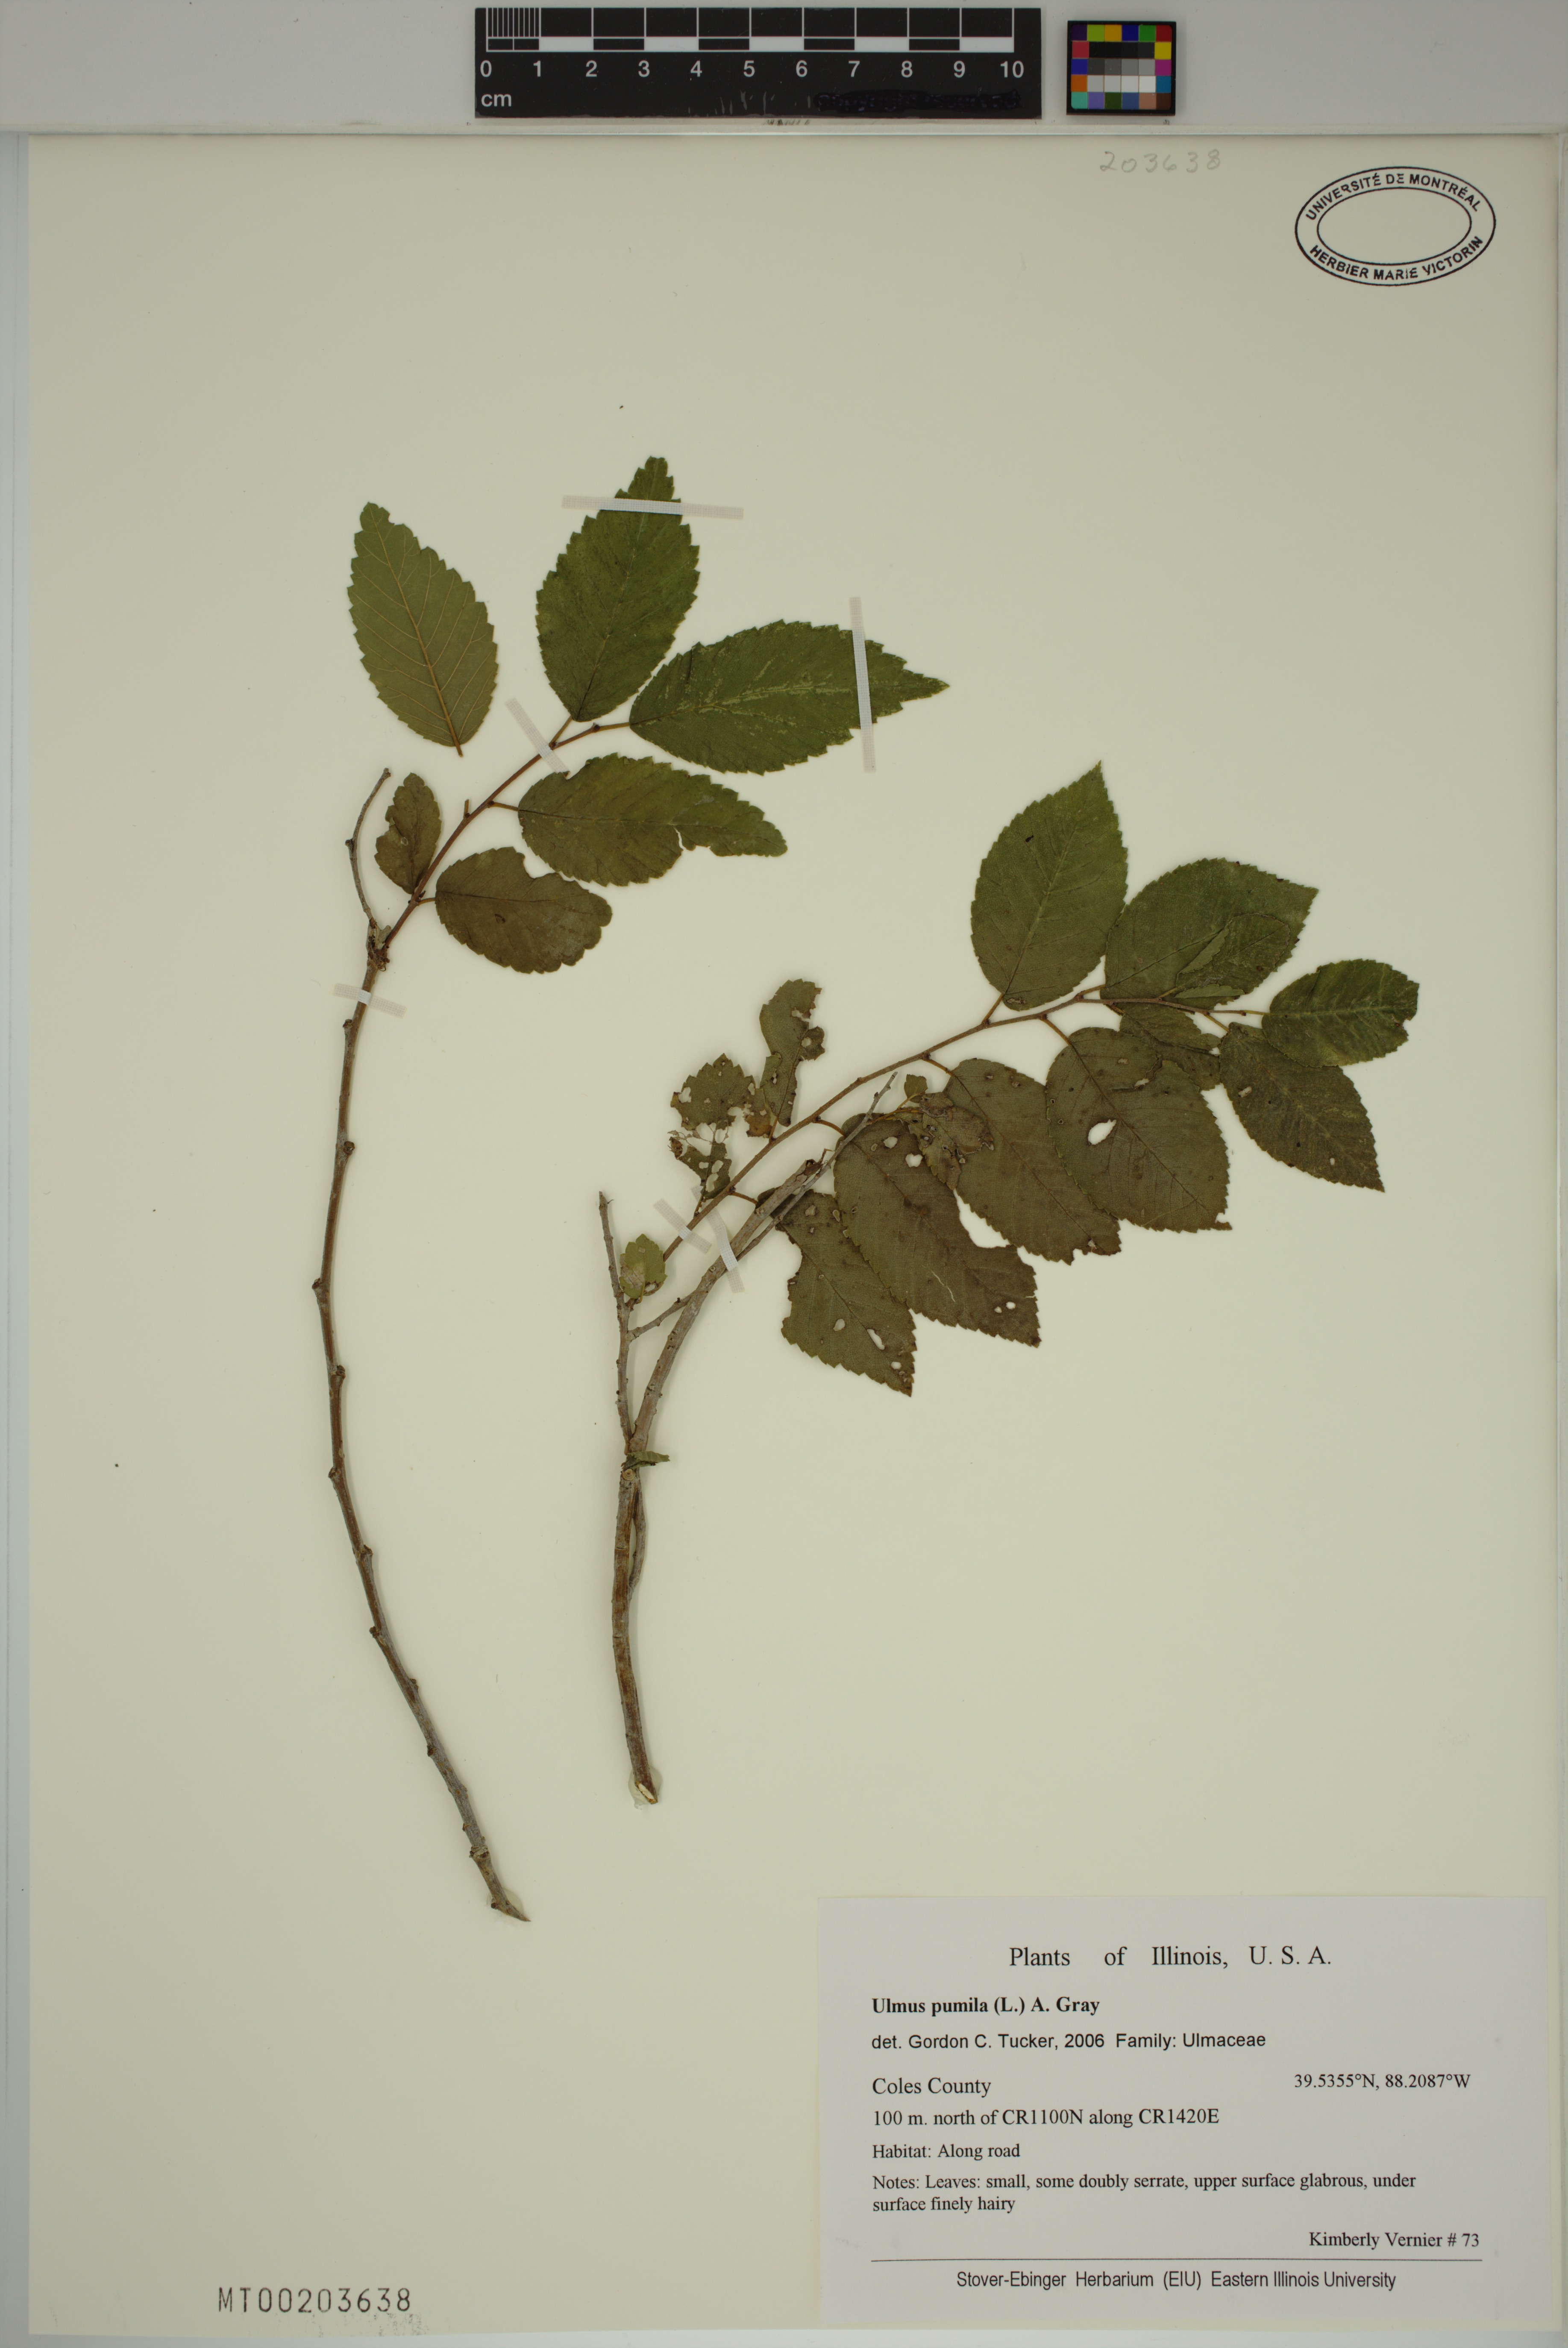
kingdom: Plantae
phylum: Tracheophyta
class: Magnoliopsida
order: Rosales
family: Ulmaceae
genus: Ulmus
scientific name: Ulmus pumila
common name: Siberian elm
